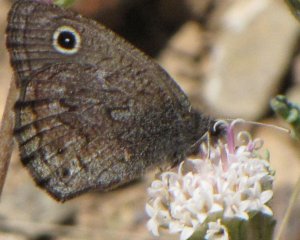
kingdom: Animalia
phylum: Arthropoda
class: Insecta
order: Lepidoptera
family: Nymphalidae
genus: Cercyonis
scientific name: Cercyonis oetus
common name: Small Wood-Nymph
